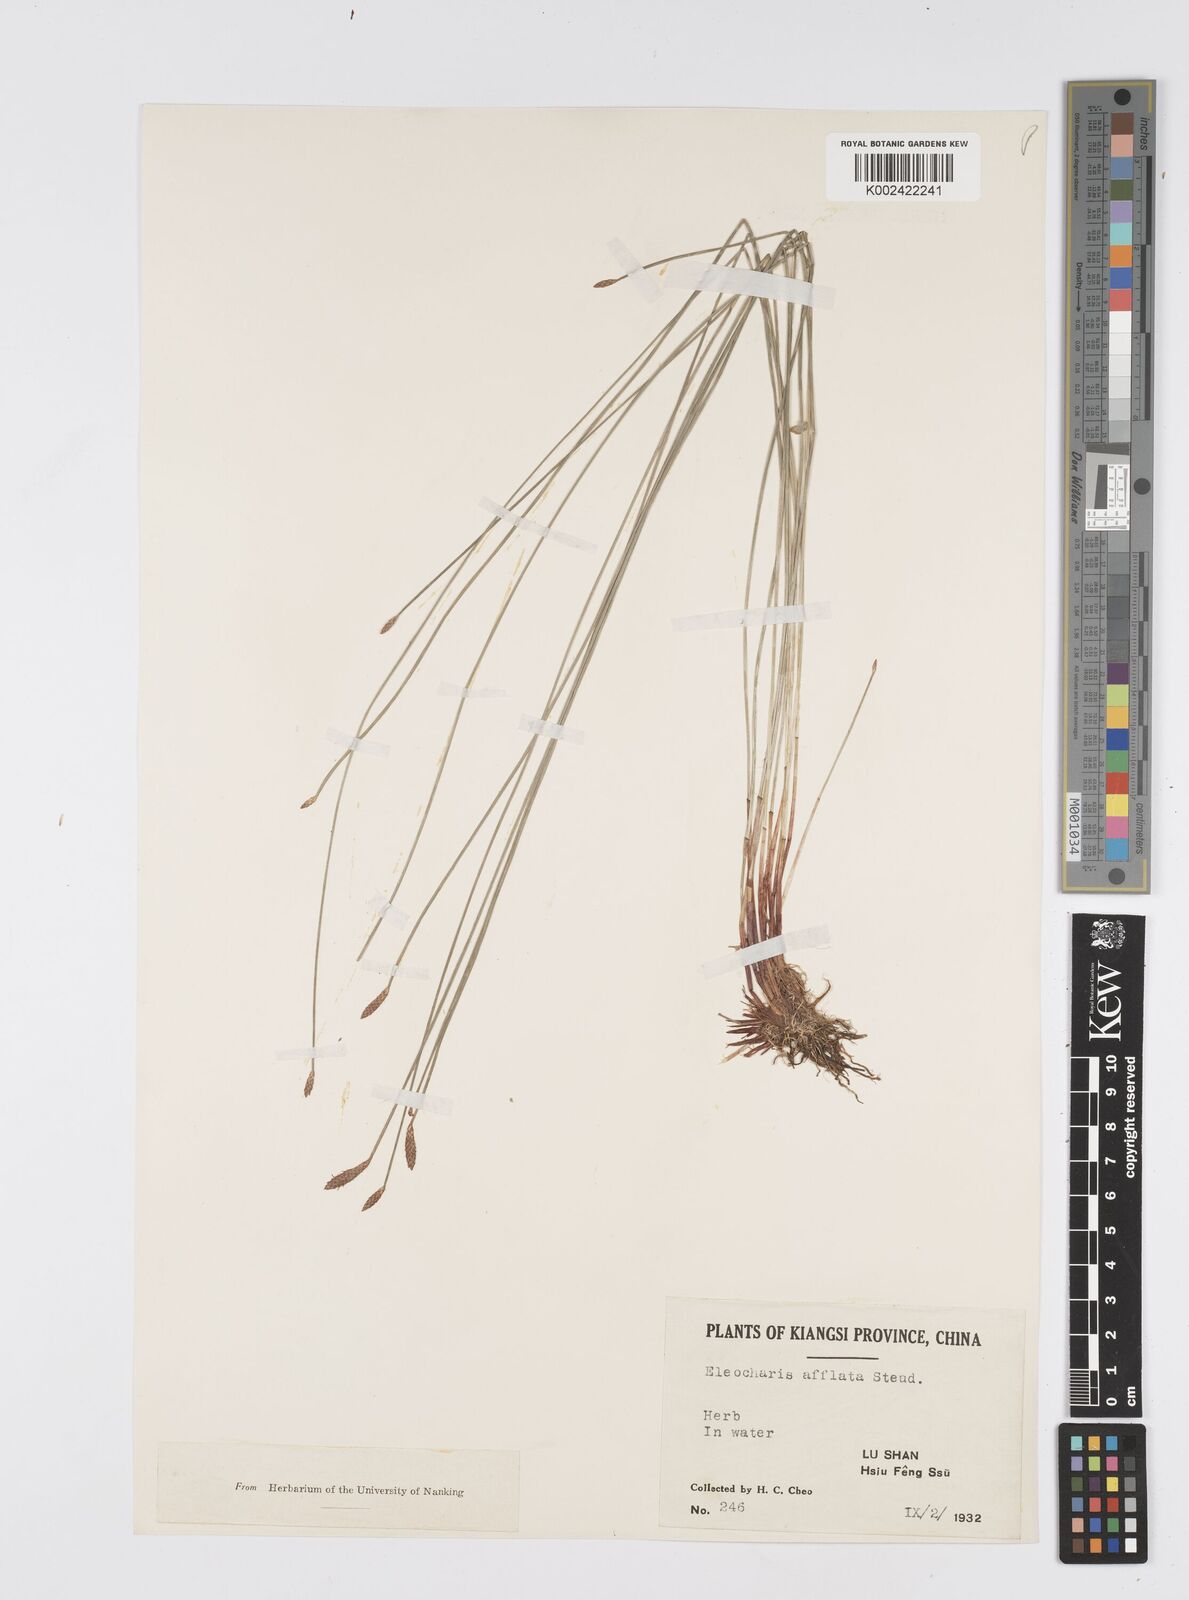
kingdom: Plantae
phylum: Tracheophyta
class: Liliopsida
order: Poales
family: Cyperaceae
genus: Eleocharis
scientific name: Eleocharis pellucida
